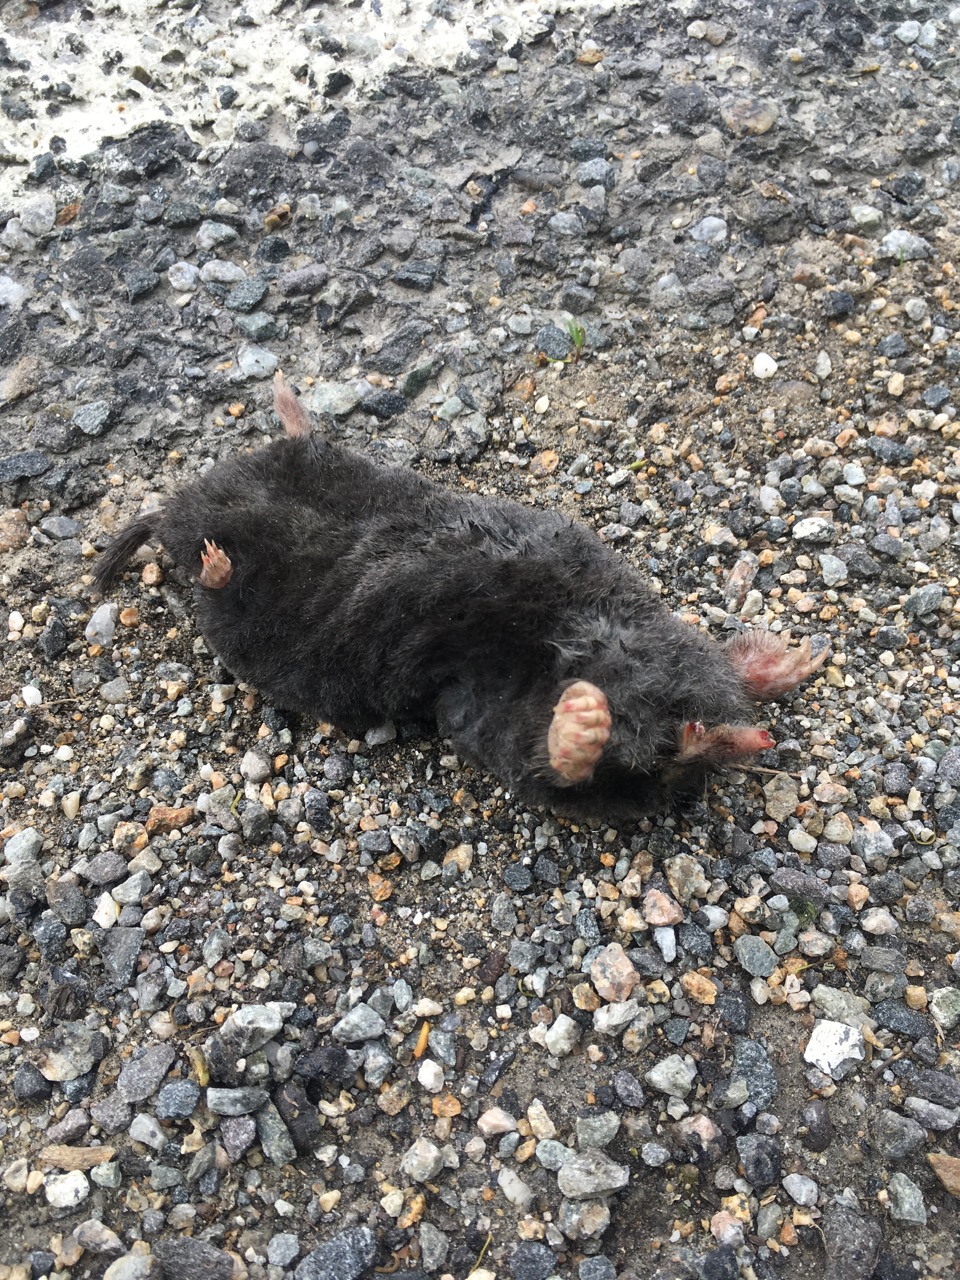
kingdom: Animalia
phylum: Chordata
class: Mammalia
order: Soricomorpha
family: Talpidae
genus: Talpa
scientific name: Talpa europaea
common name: European mole
